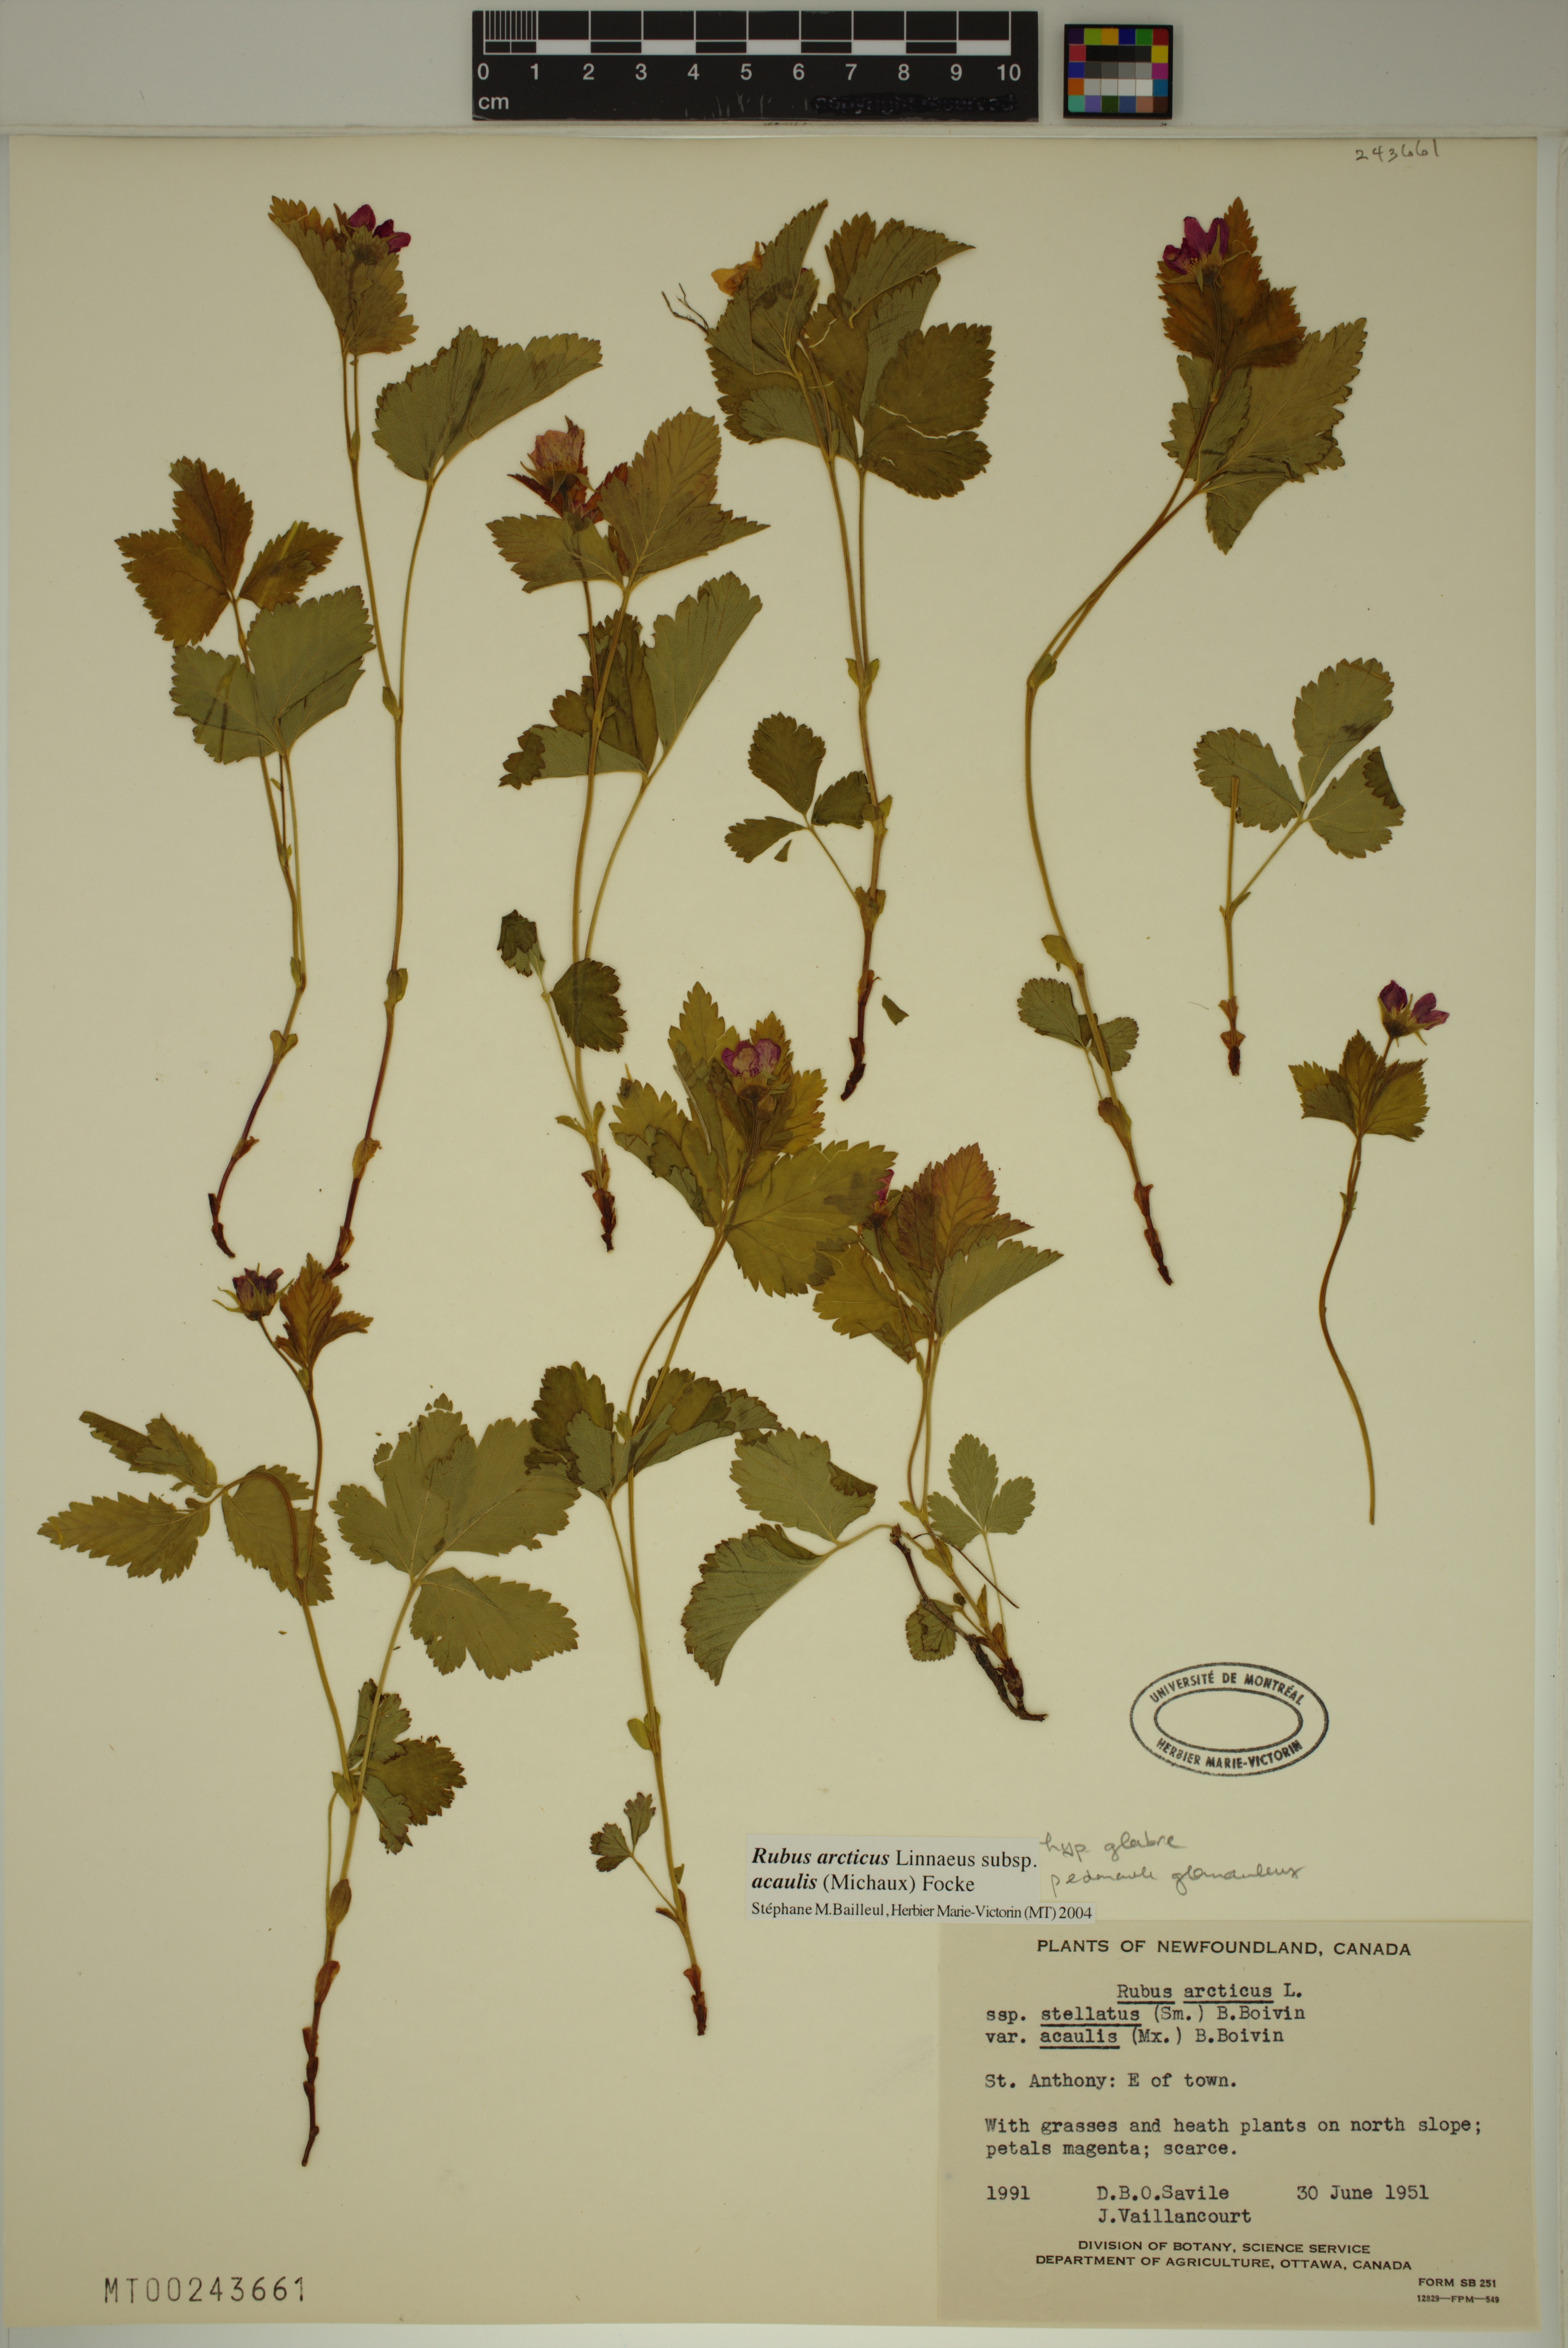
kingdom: Plantae
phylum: Tracheophyta
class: Magnoliopsida
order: Rosales
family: Rosaceae
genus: Rubus
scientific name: Rubus arcticus
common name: Arctic bramble
